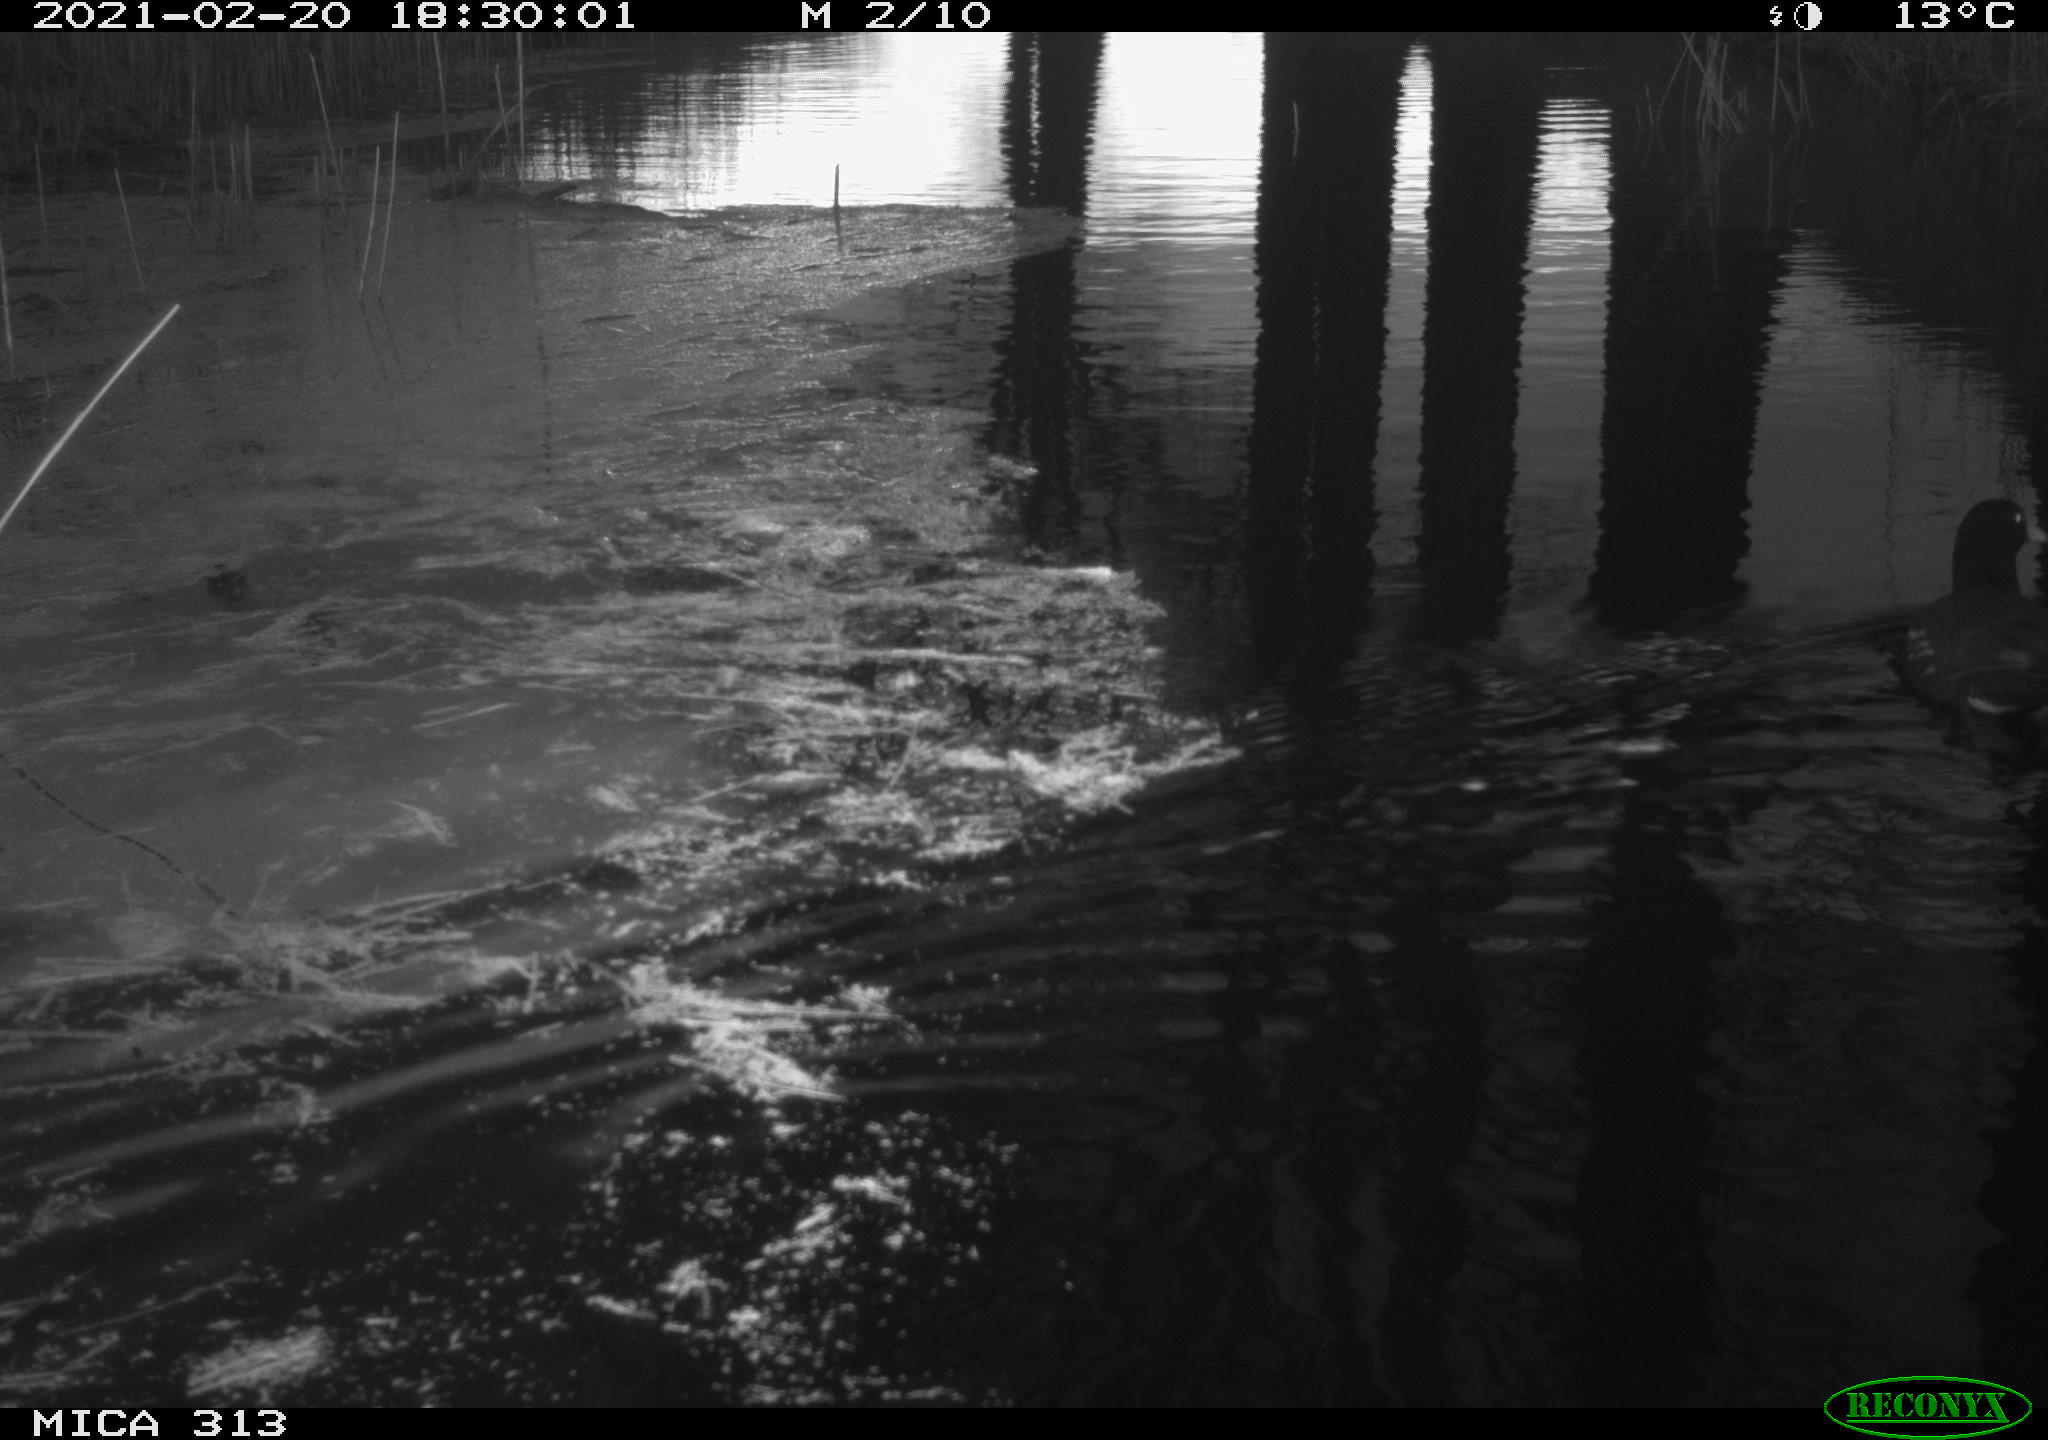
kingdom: Animalia
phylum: Chordata
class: Aves
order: Anseriformes
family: Anatidae
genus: Anas
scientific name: Anas
